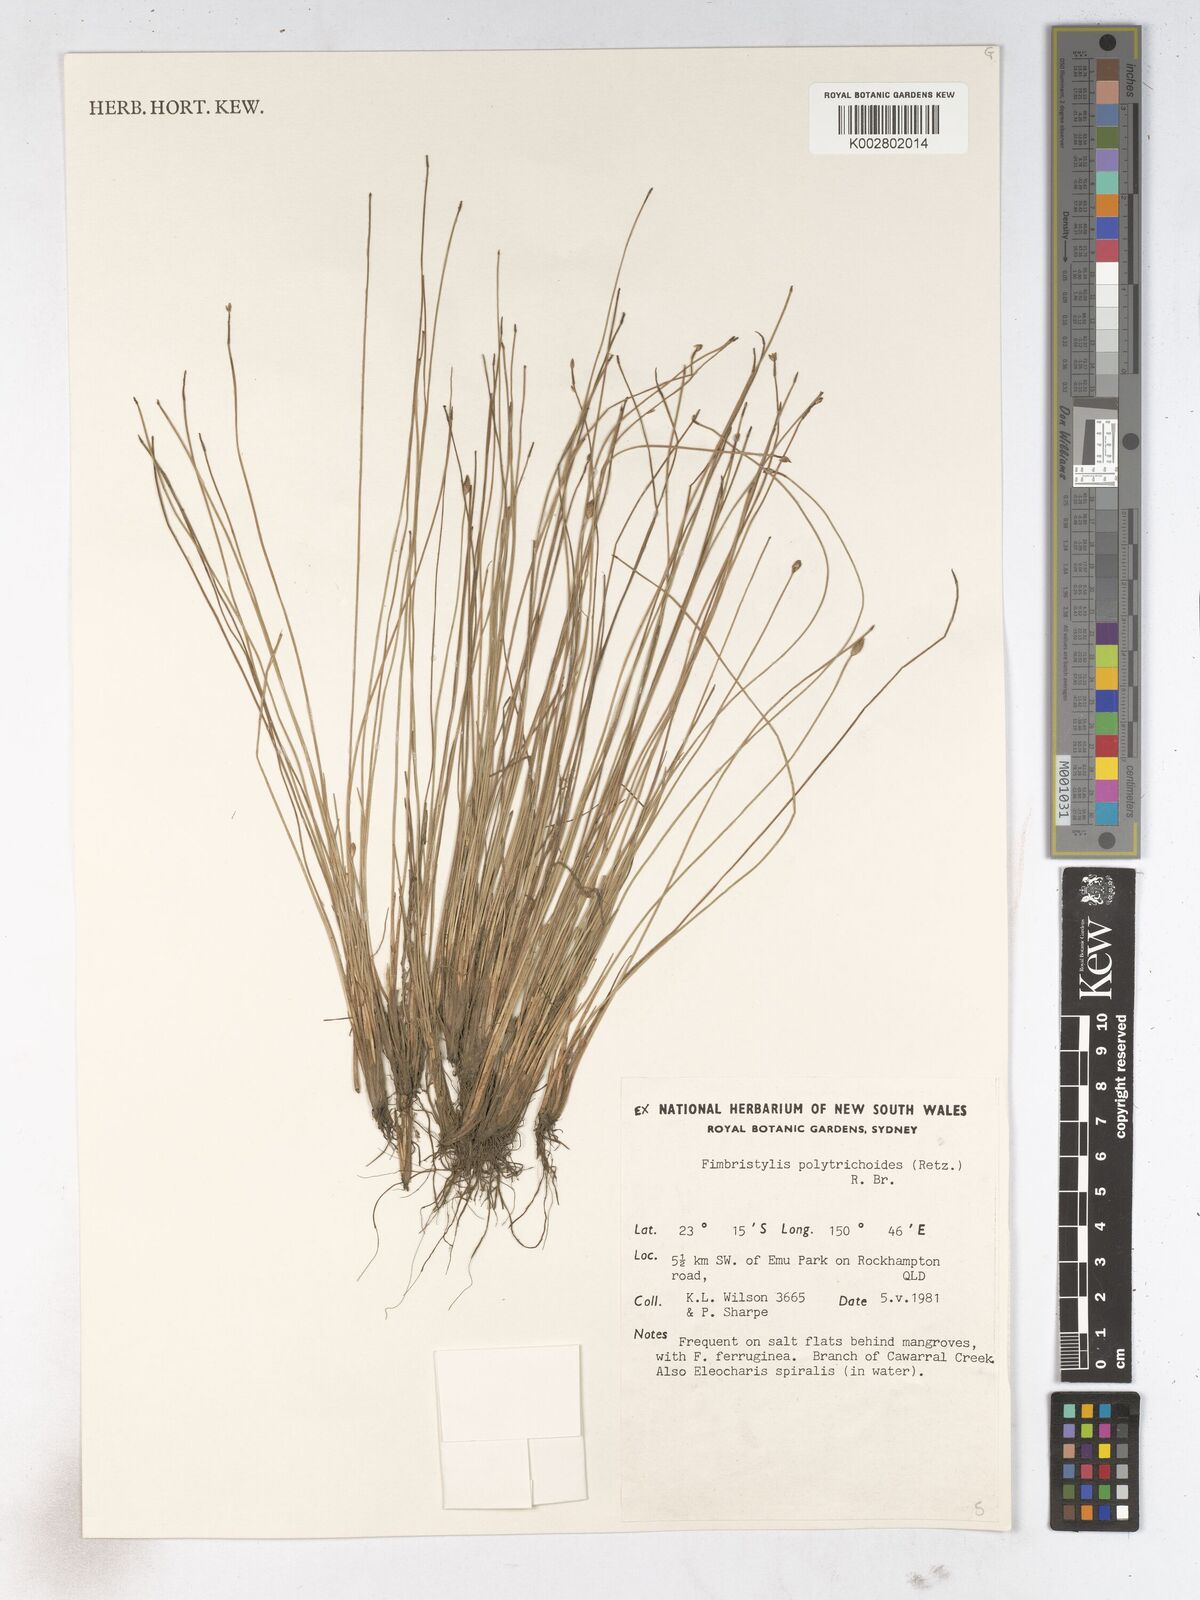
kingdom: Plantae
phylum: Tracheophyta
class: Liliopsida
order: Poales
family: Cyperaceae
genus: Fimbristylis
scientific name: Fimbristylis polytrichoides
